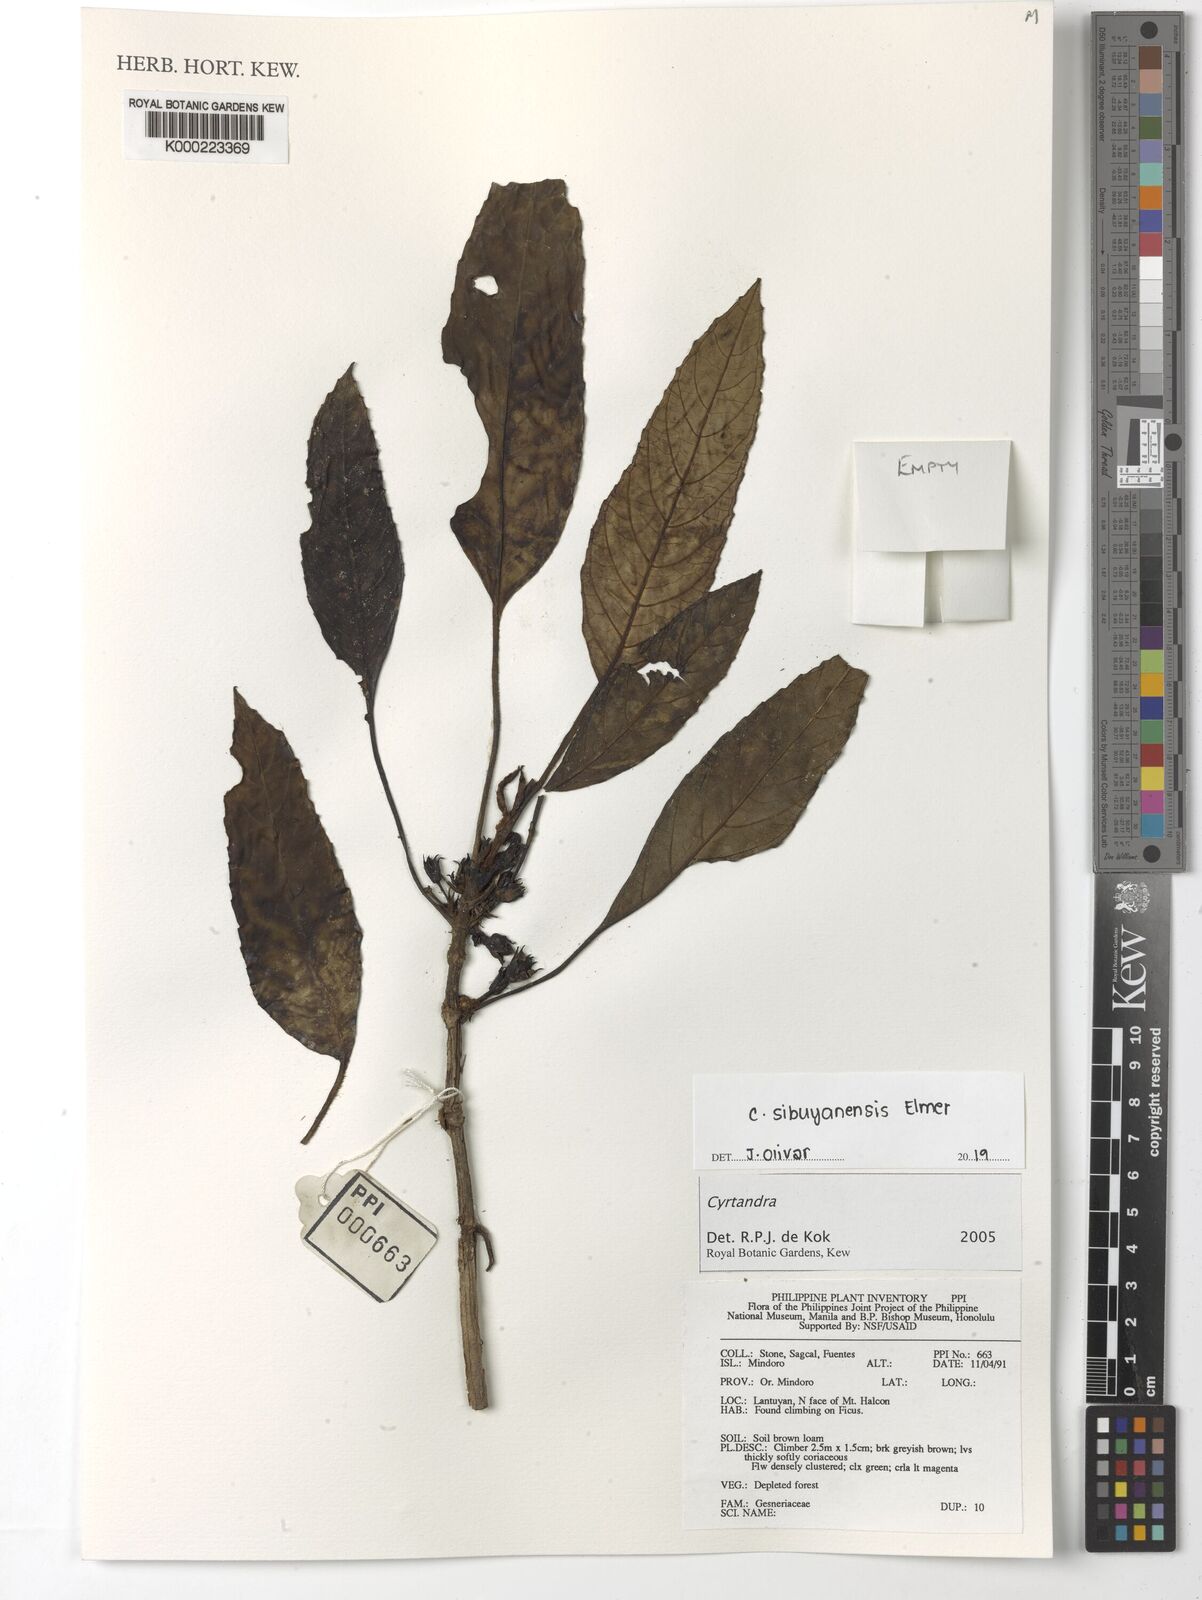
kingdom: Plantae
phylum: Tracheophyta
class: Magnoliopsida
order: Lamiales
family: Gesneriaceae
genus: Cyrtandra
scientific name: Cyrtandra
